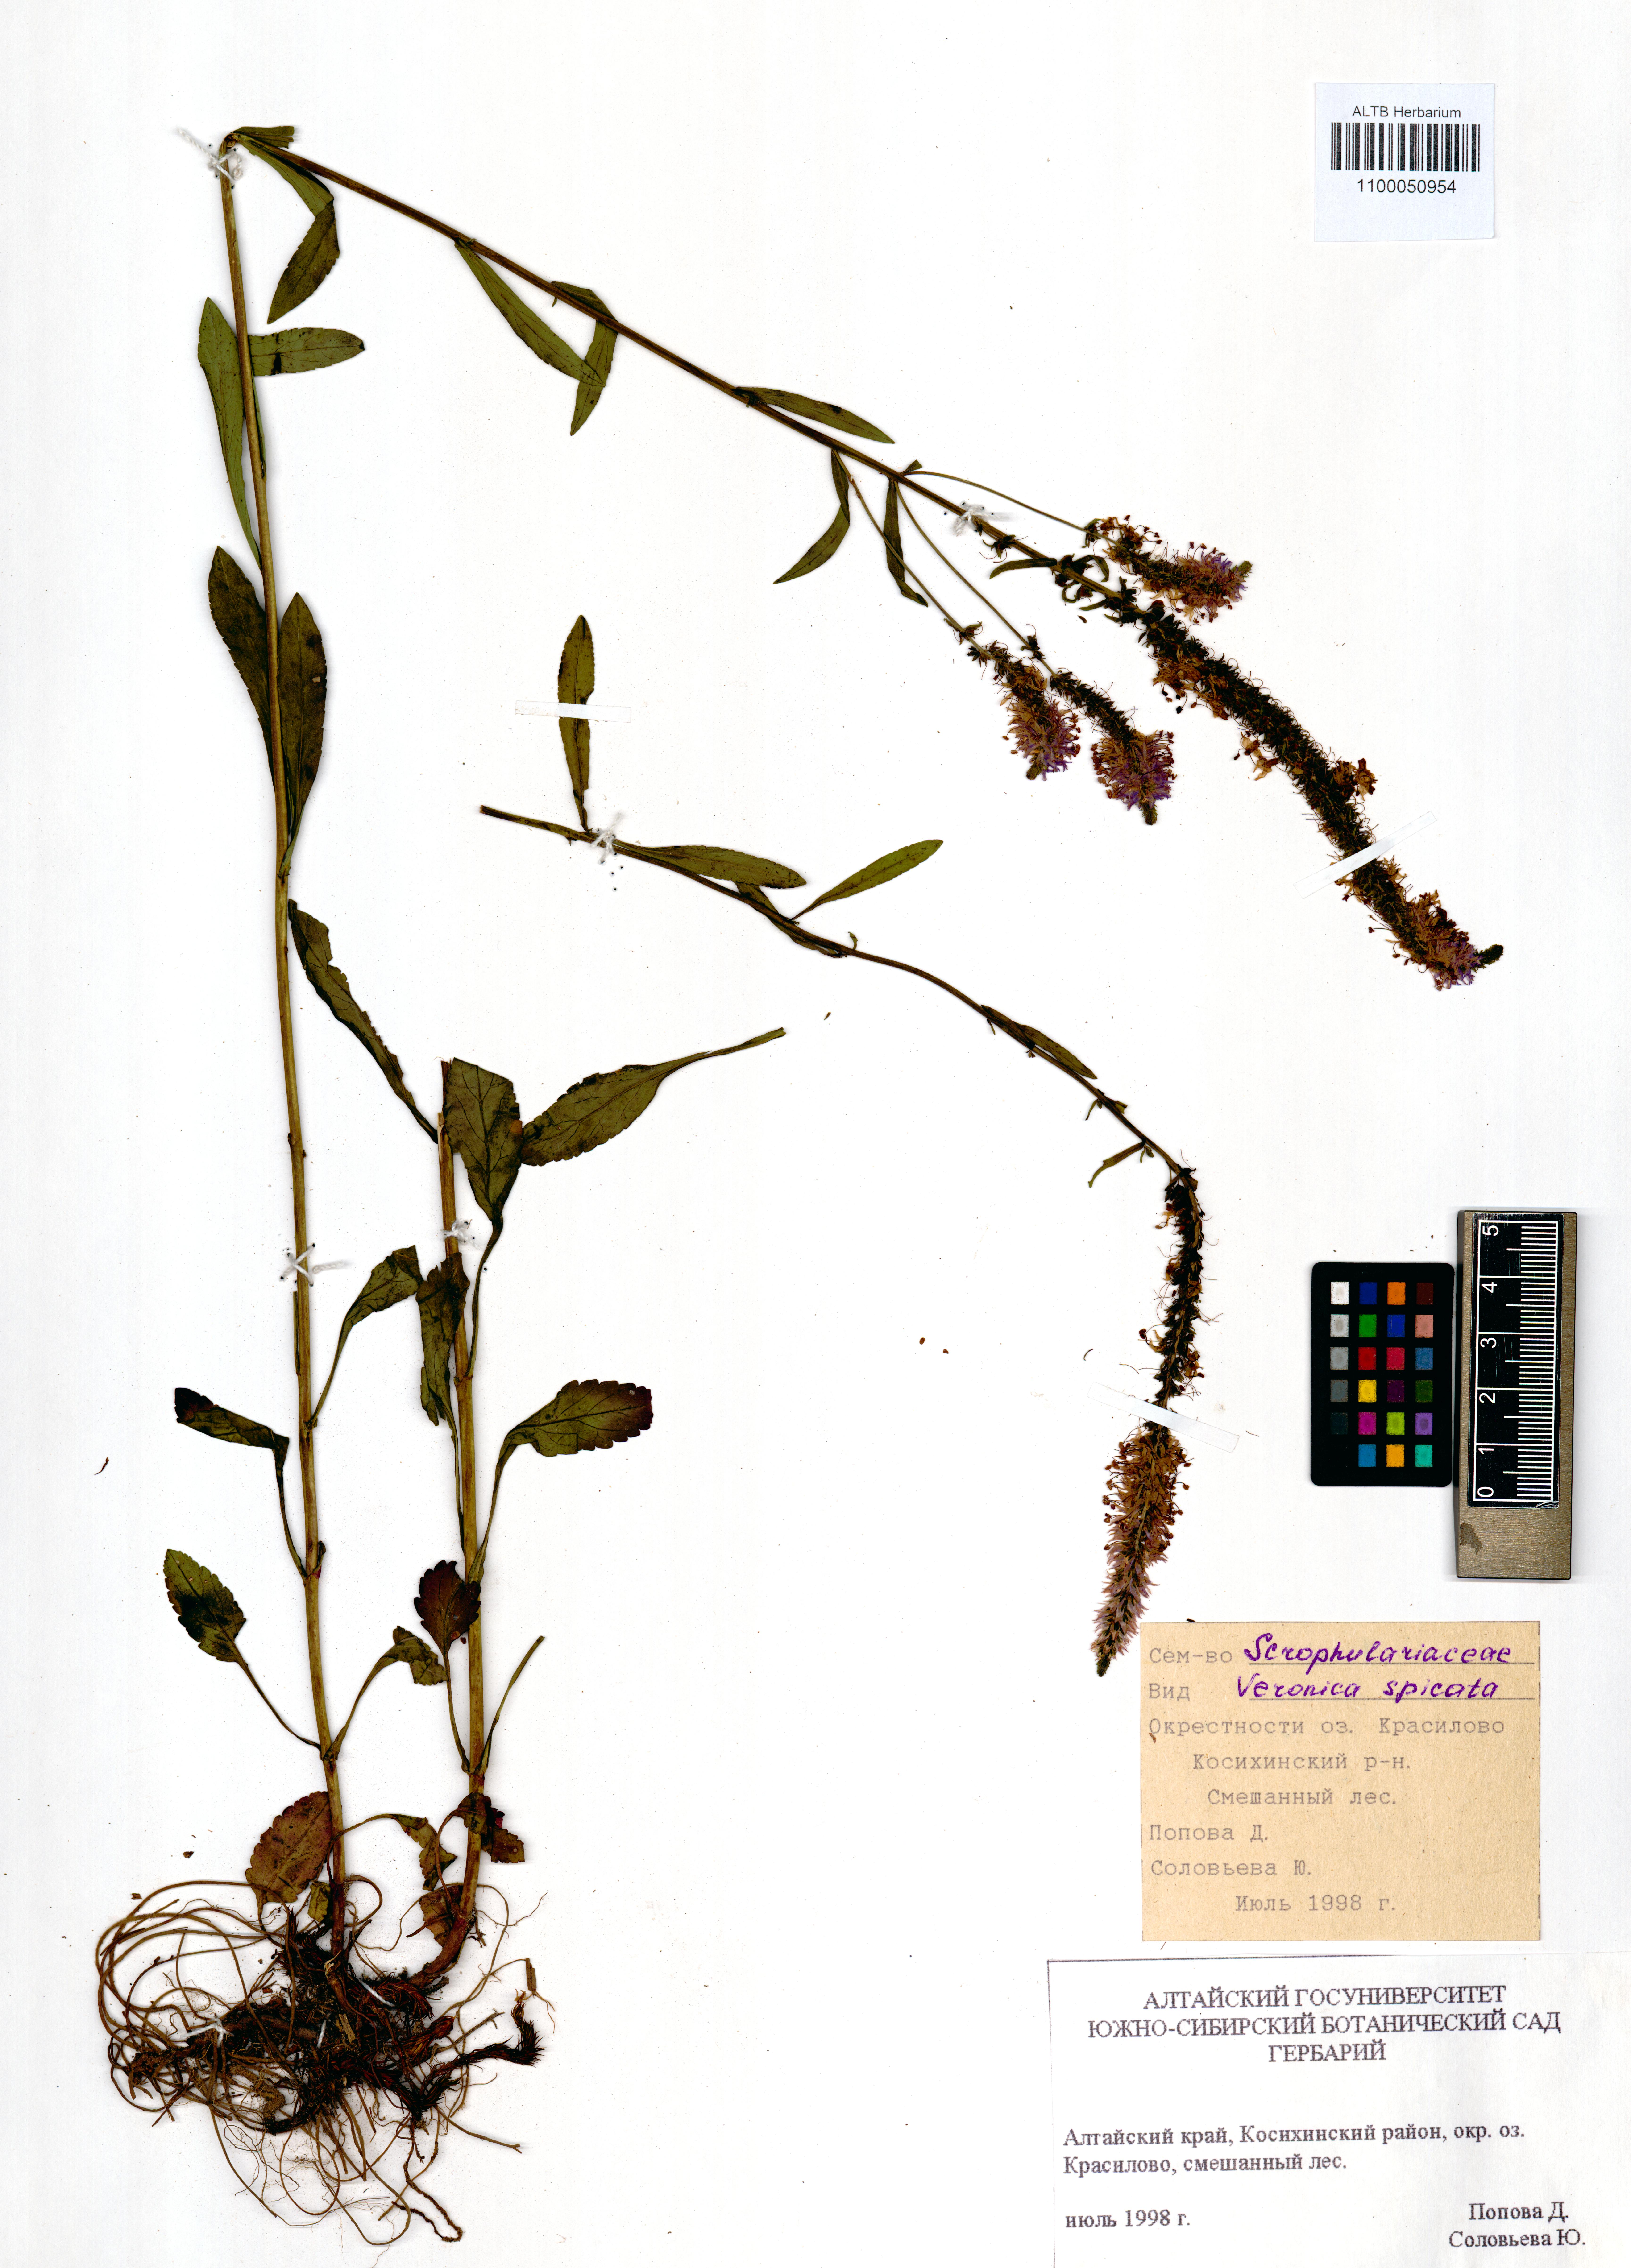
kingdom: Plantae
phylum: Tracheophyta
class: Magnoliopsida
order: Lamiales
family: Plantaginaceae
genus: Veronica
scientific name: Veronica spicata
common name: Spiked speedwell
